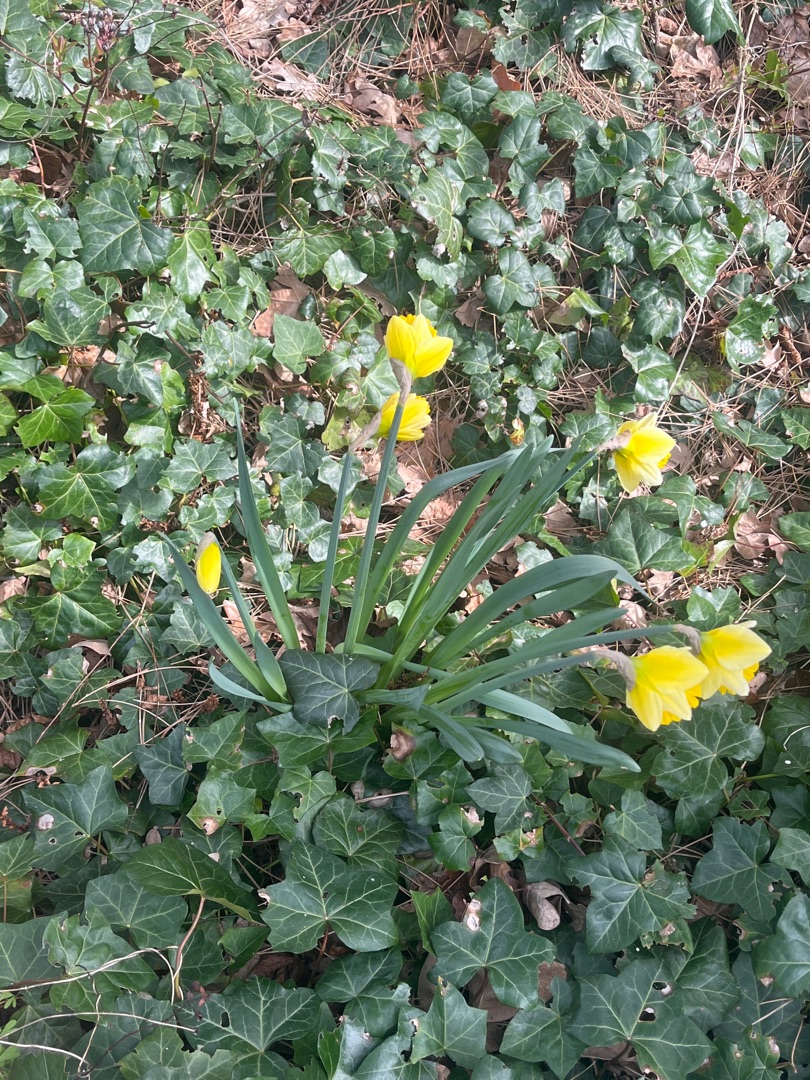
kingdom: Plantae
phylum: Tracheophyta
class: Liliopsida
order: Asparagales
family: Amaryllidaceae
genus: Narcissus
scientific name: Narcissus pseudonarcissus
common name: Påskelilje
